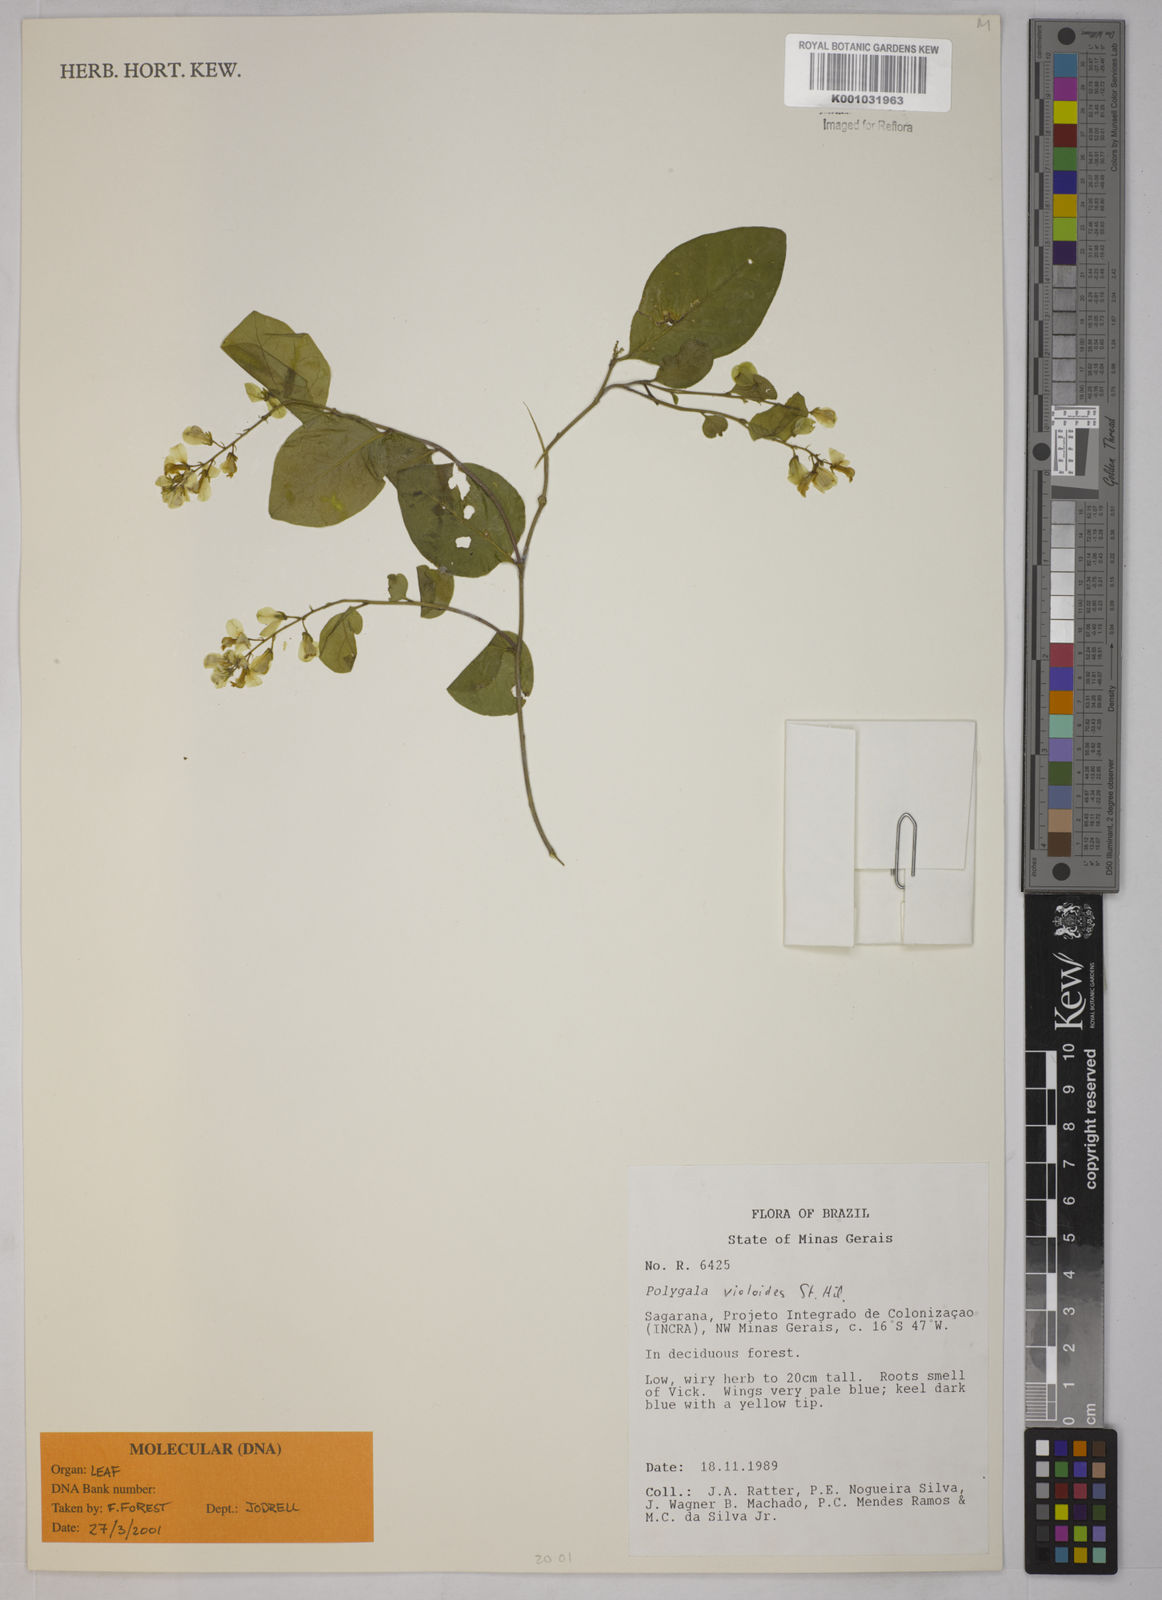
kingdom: Plantae
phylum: Tracheophyta
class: Magnoliopsida
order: Fabales
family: Polygalaceae
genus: Gymnospora
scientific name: Gymnospora violoides
